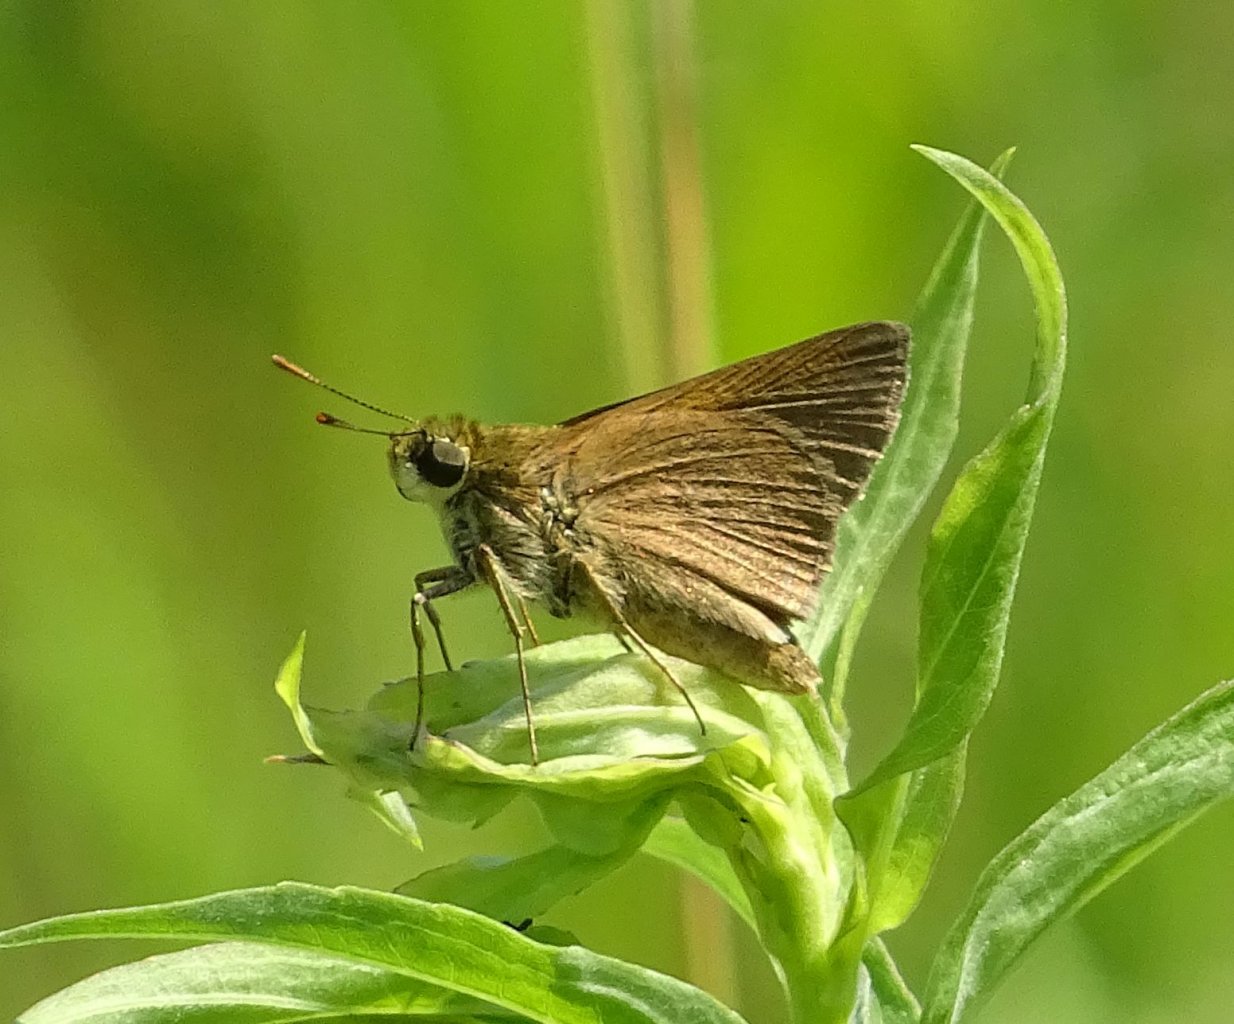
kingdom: Animalia
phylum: Arthropoda
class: Insecta
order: Lepidoptera
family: Hesperiidae
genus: Polites
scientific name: Polites
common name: Crossline Skipper
